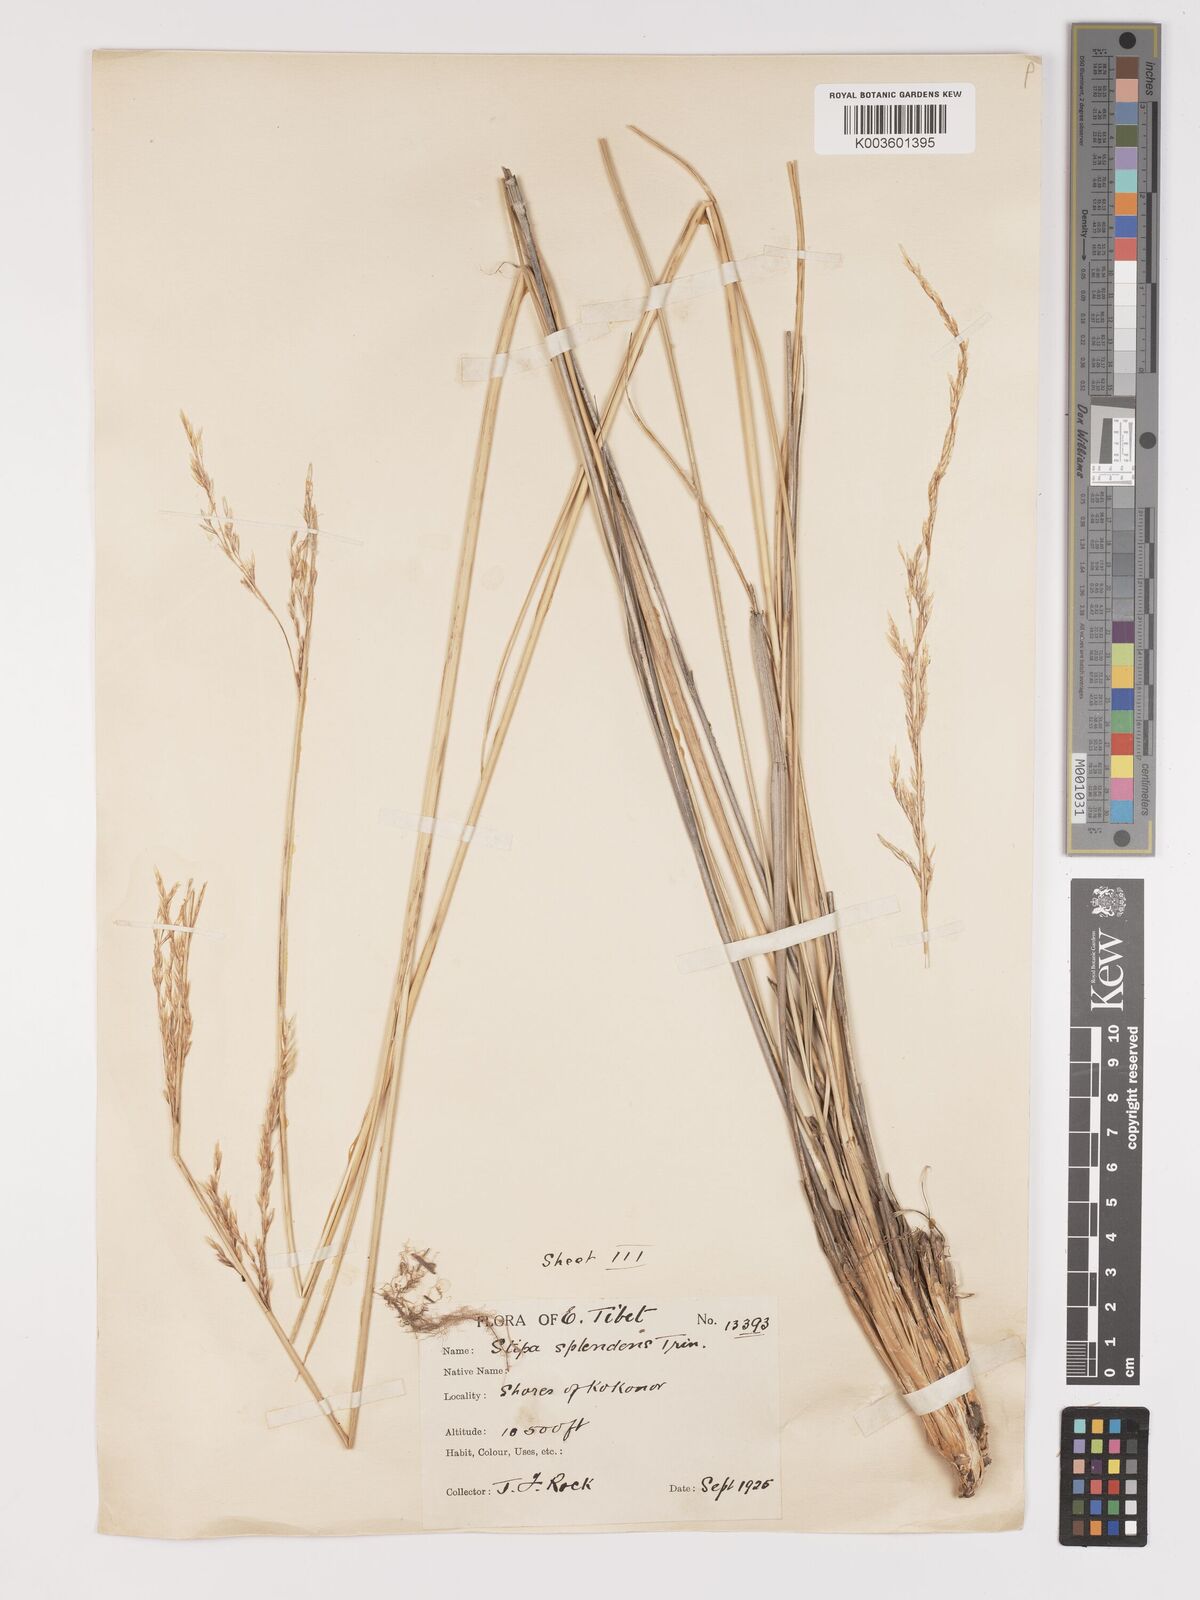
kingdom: Plantae
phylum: Tracheophyta
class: Liliopsida
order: Poales
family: Poaceae
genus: Neotrinia
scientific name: Neotrinia splendens
